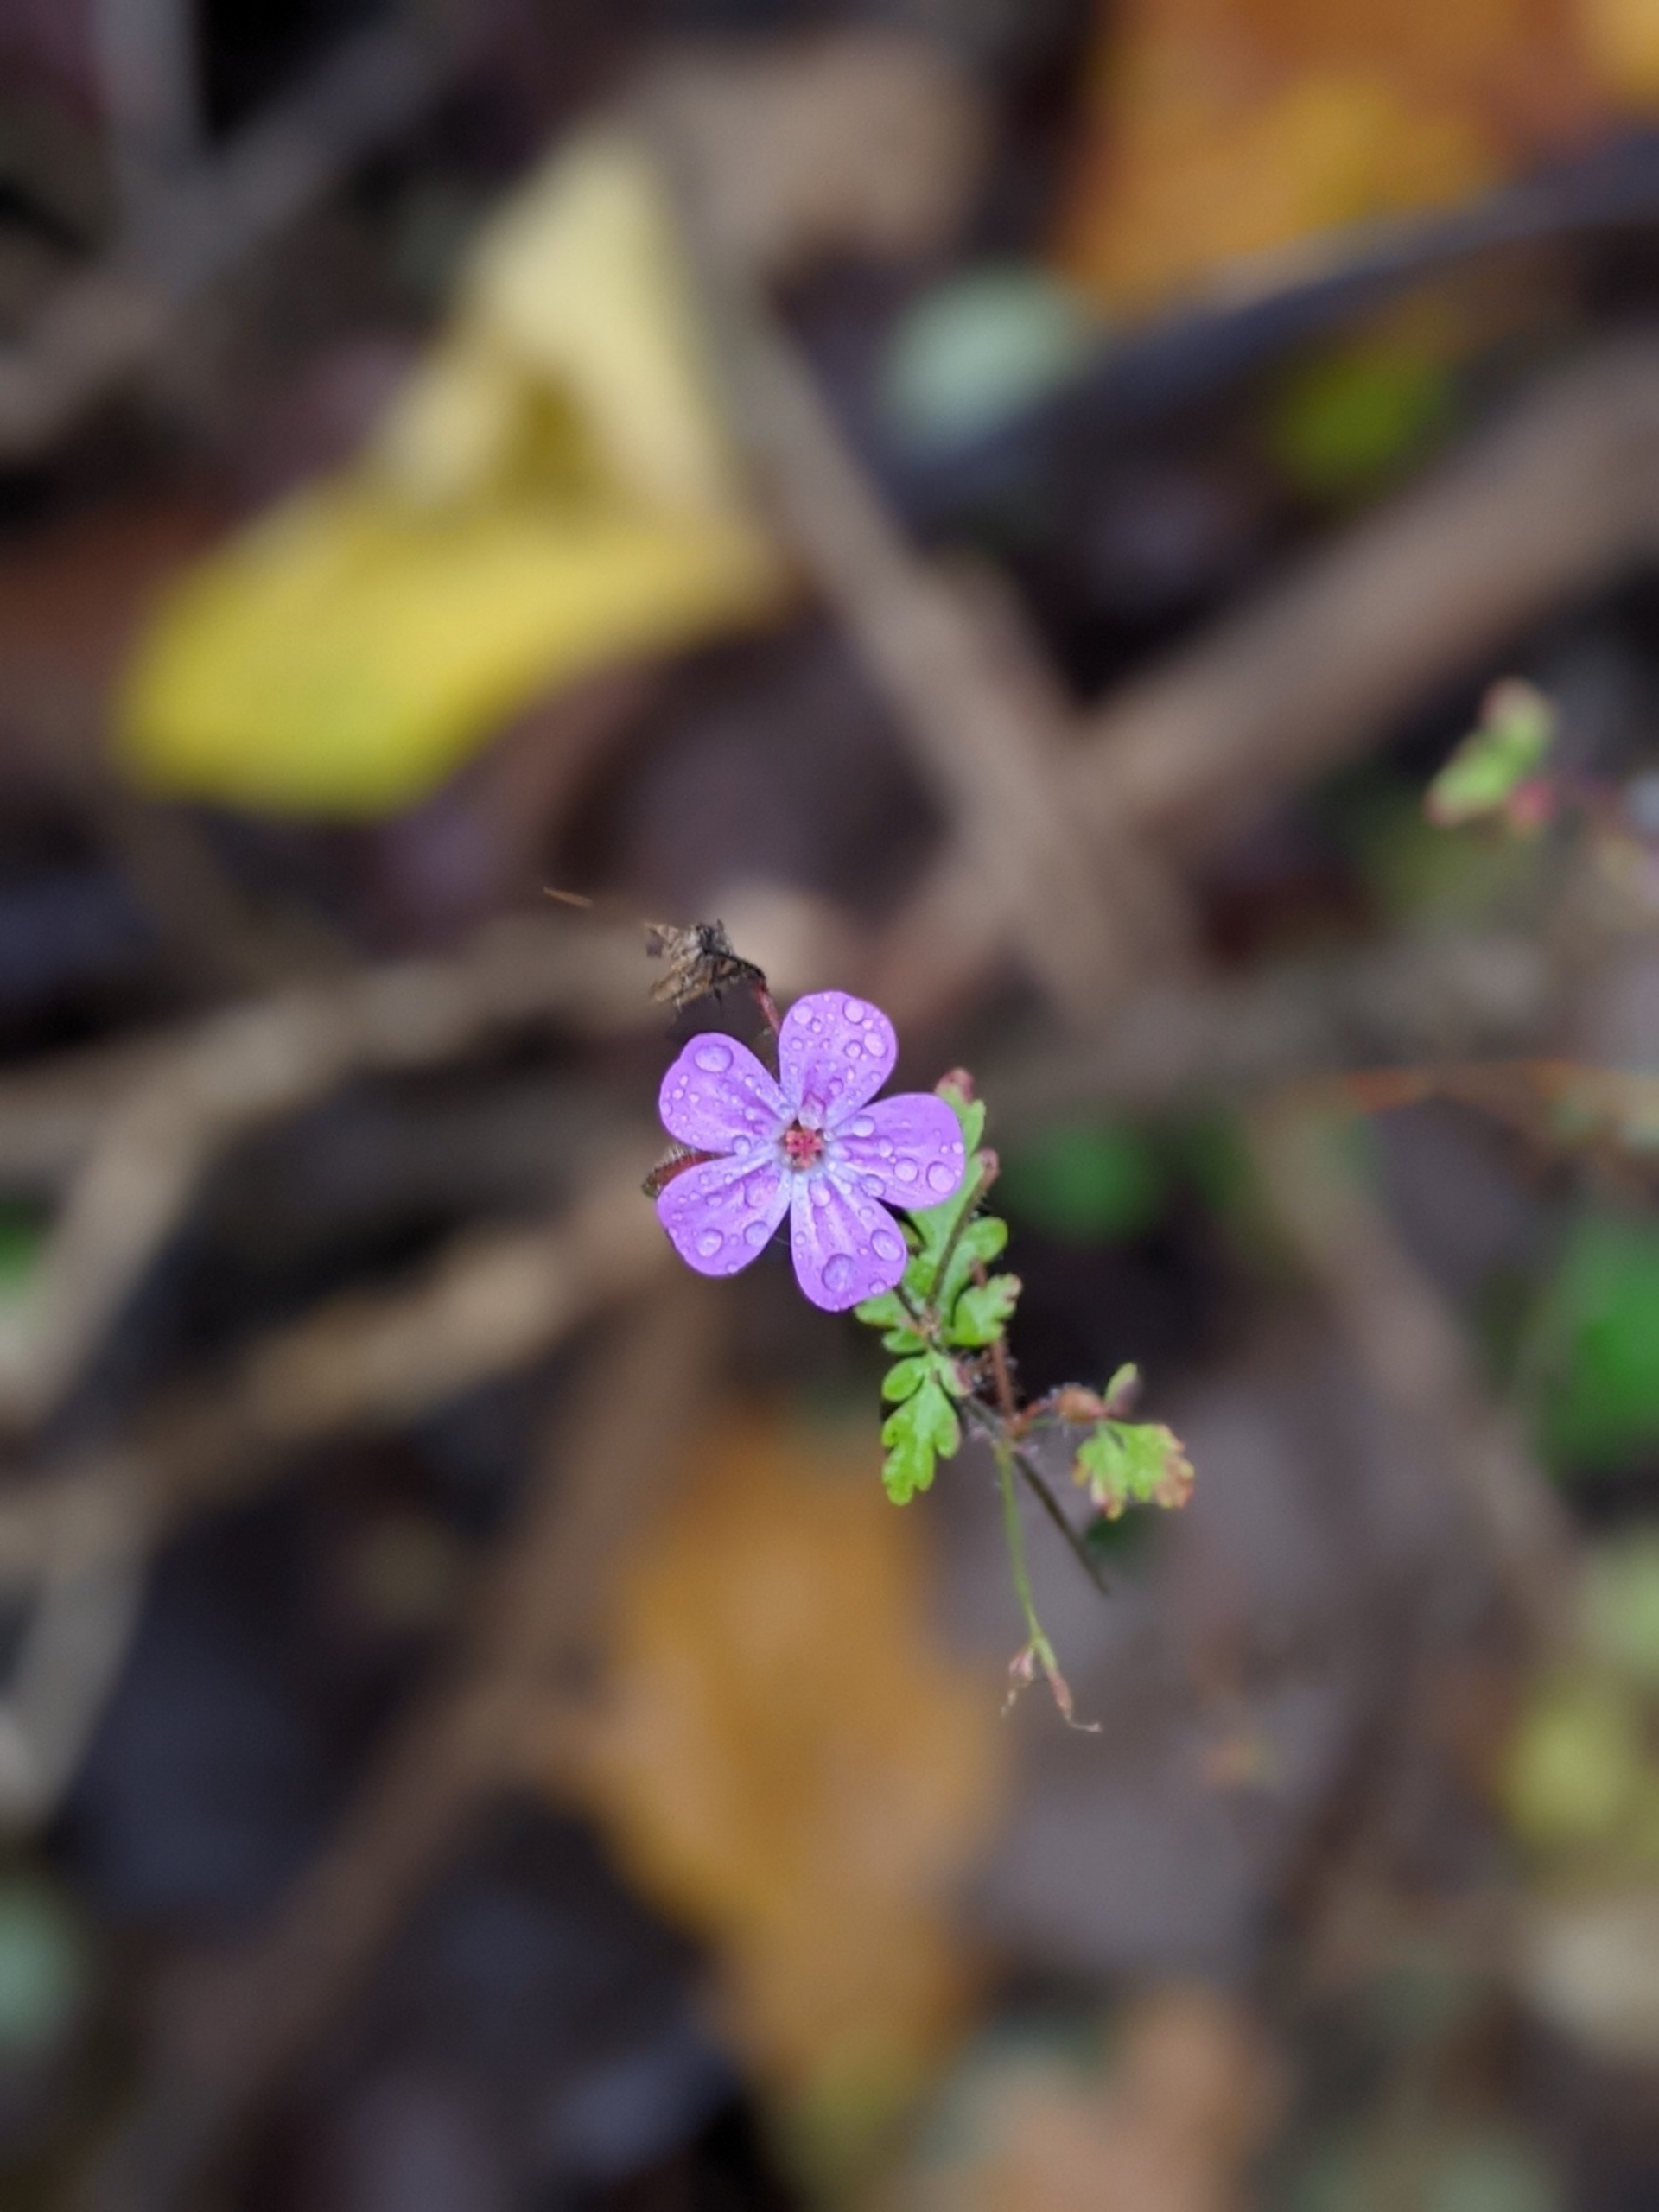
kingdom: Plantae
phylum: Tracheophyta
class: Magnoliopsida
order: Geraniales
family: Geraniaceae
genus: Geranium
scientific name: Geranium robertianum
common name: Stinkende storkenæb
